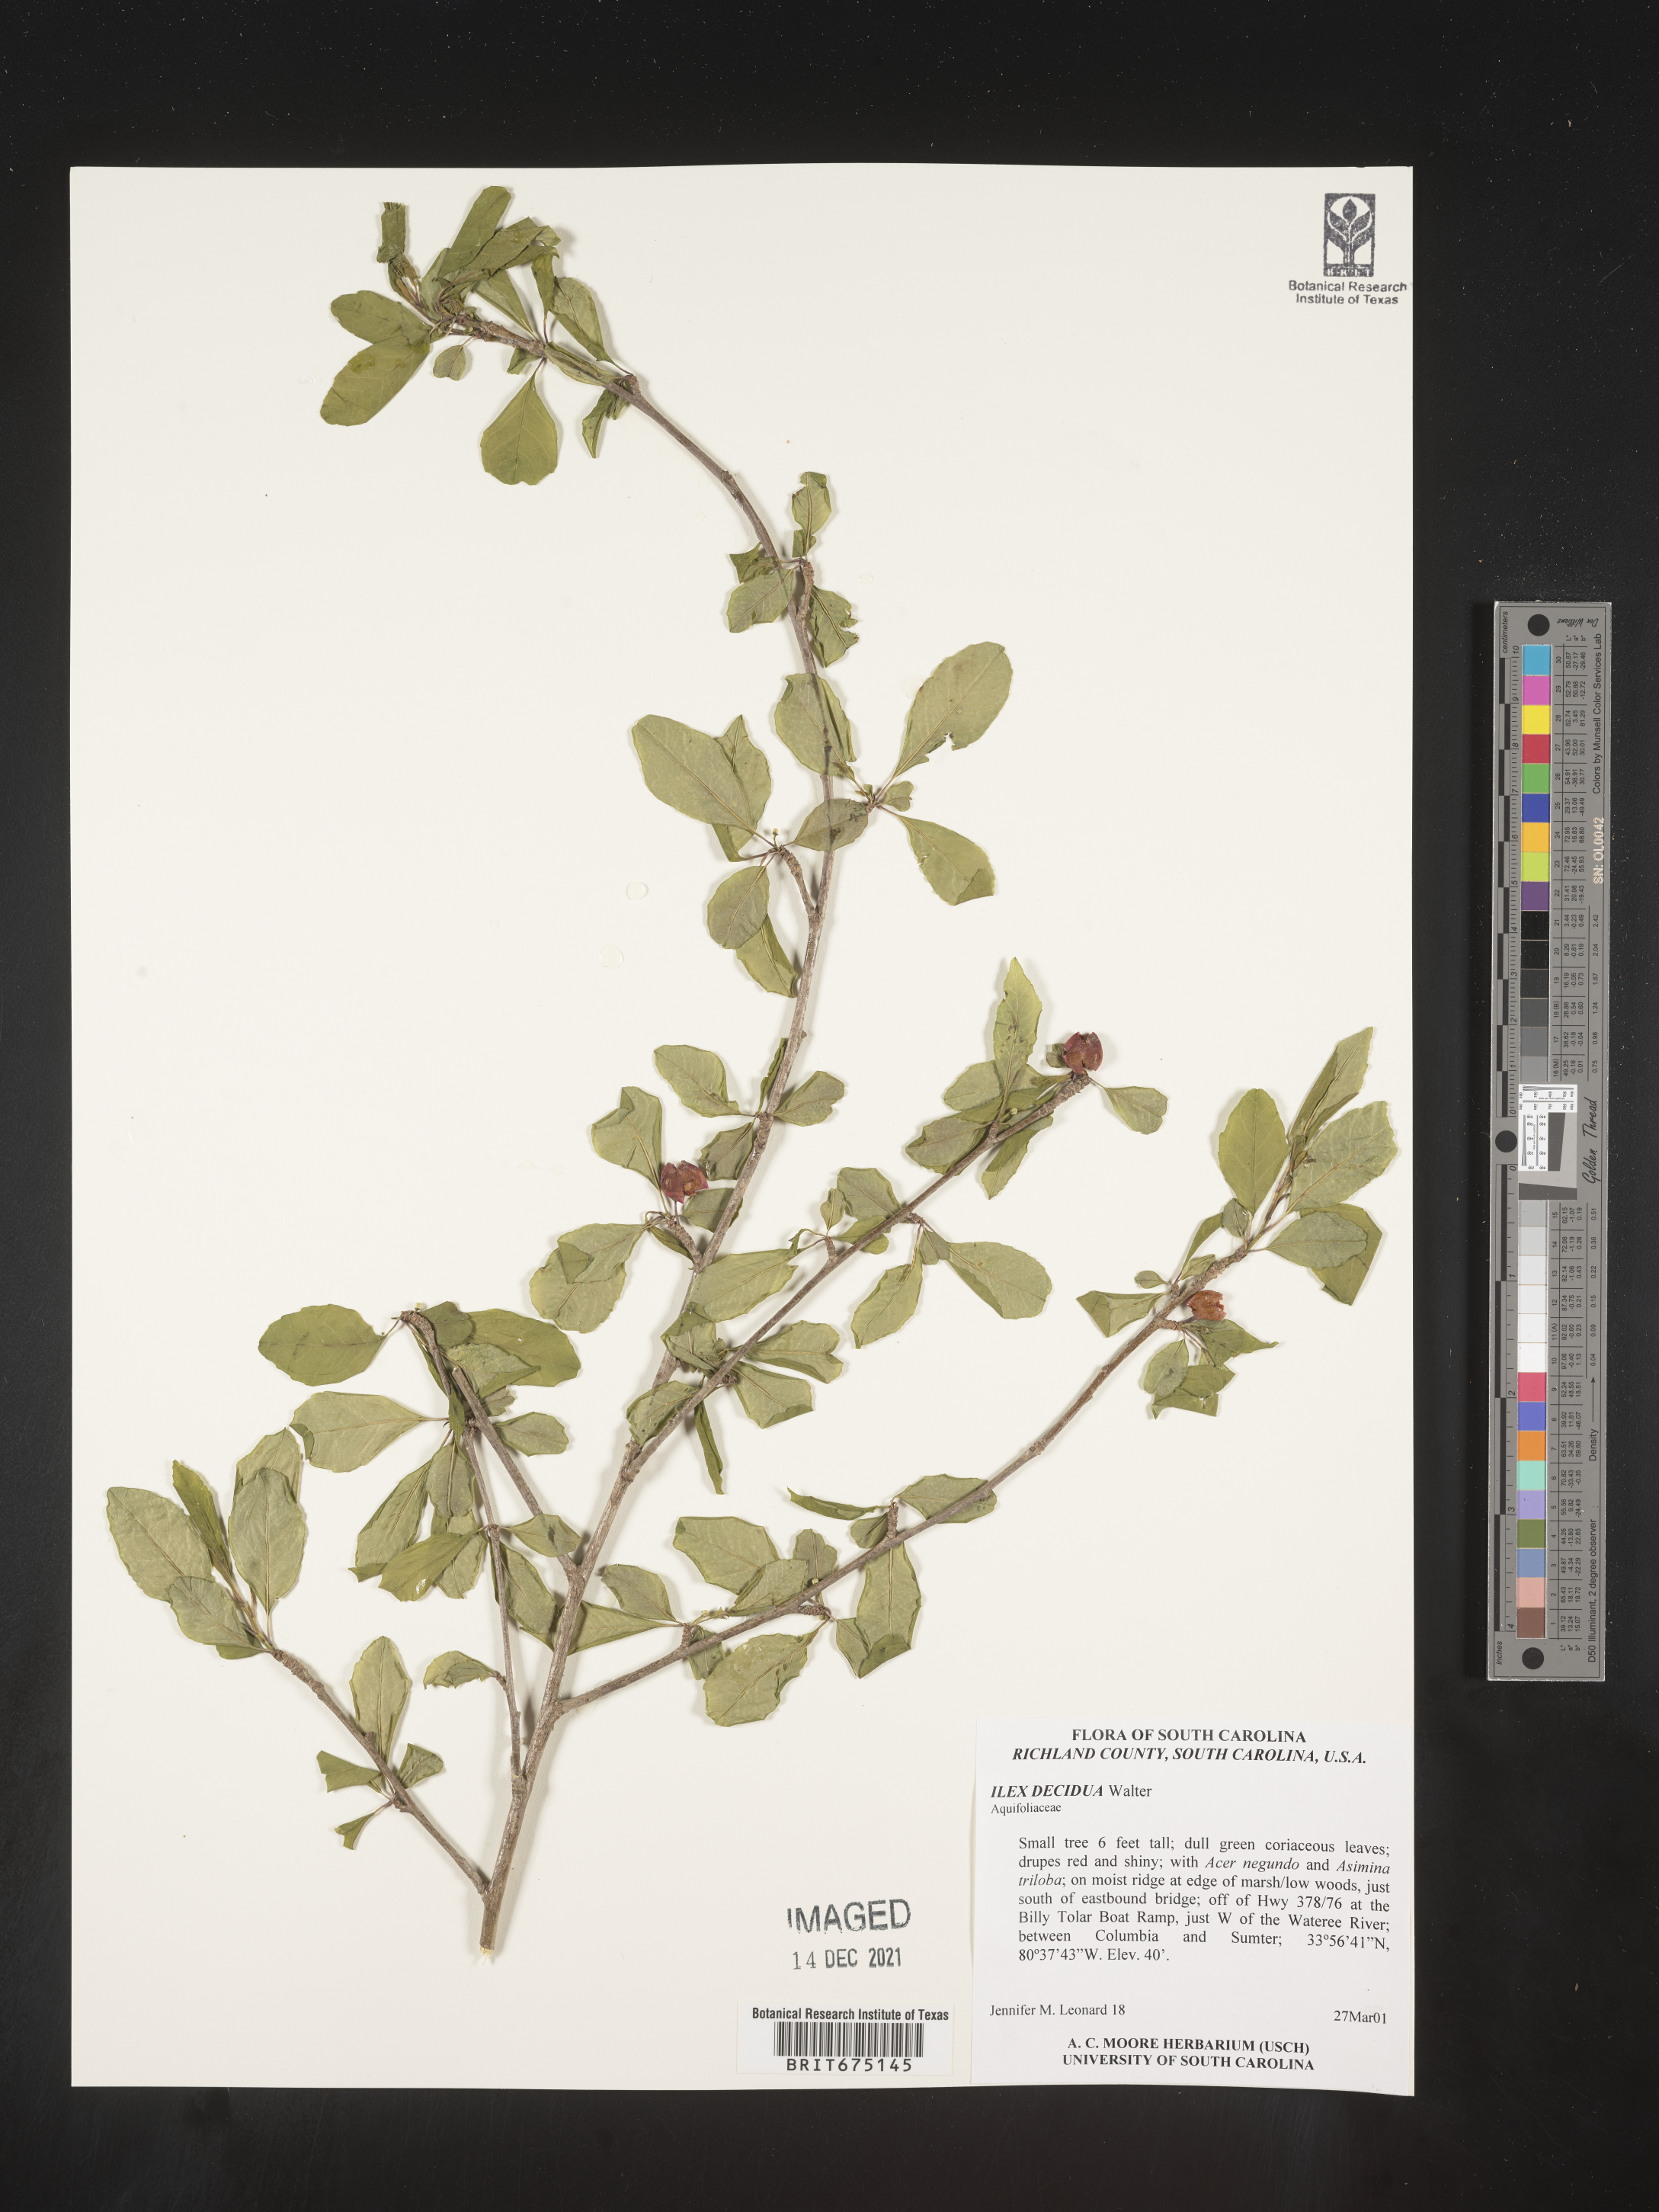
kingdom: Plantae
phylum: Tracheophyta
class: Magnoliopsida
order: Aquifoliales
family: Aquifoliaceae
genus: Ilex
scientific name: Ilex decidua
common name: Possum-haw
